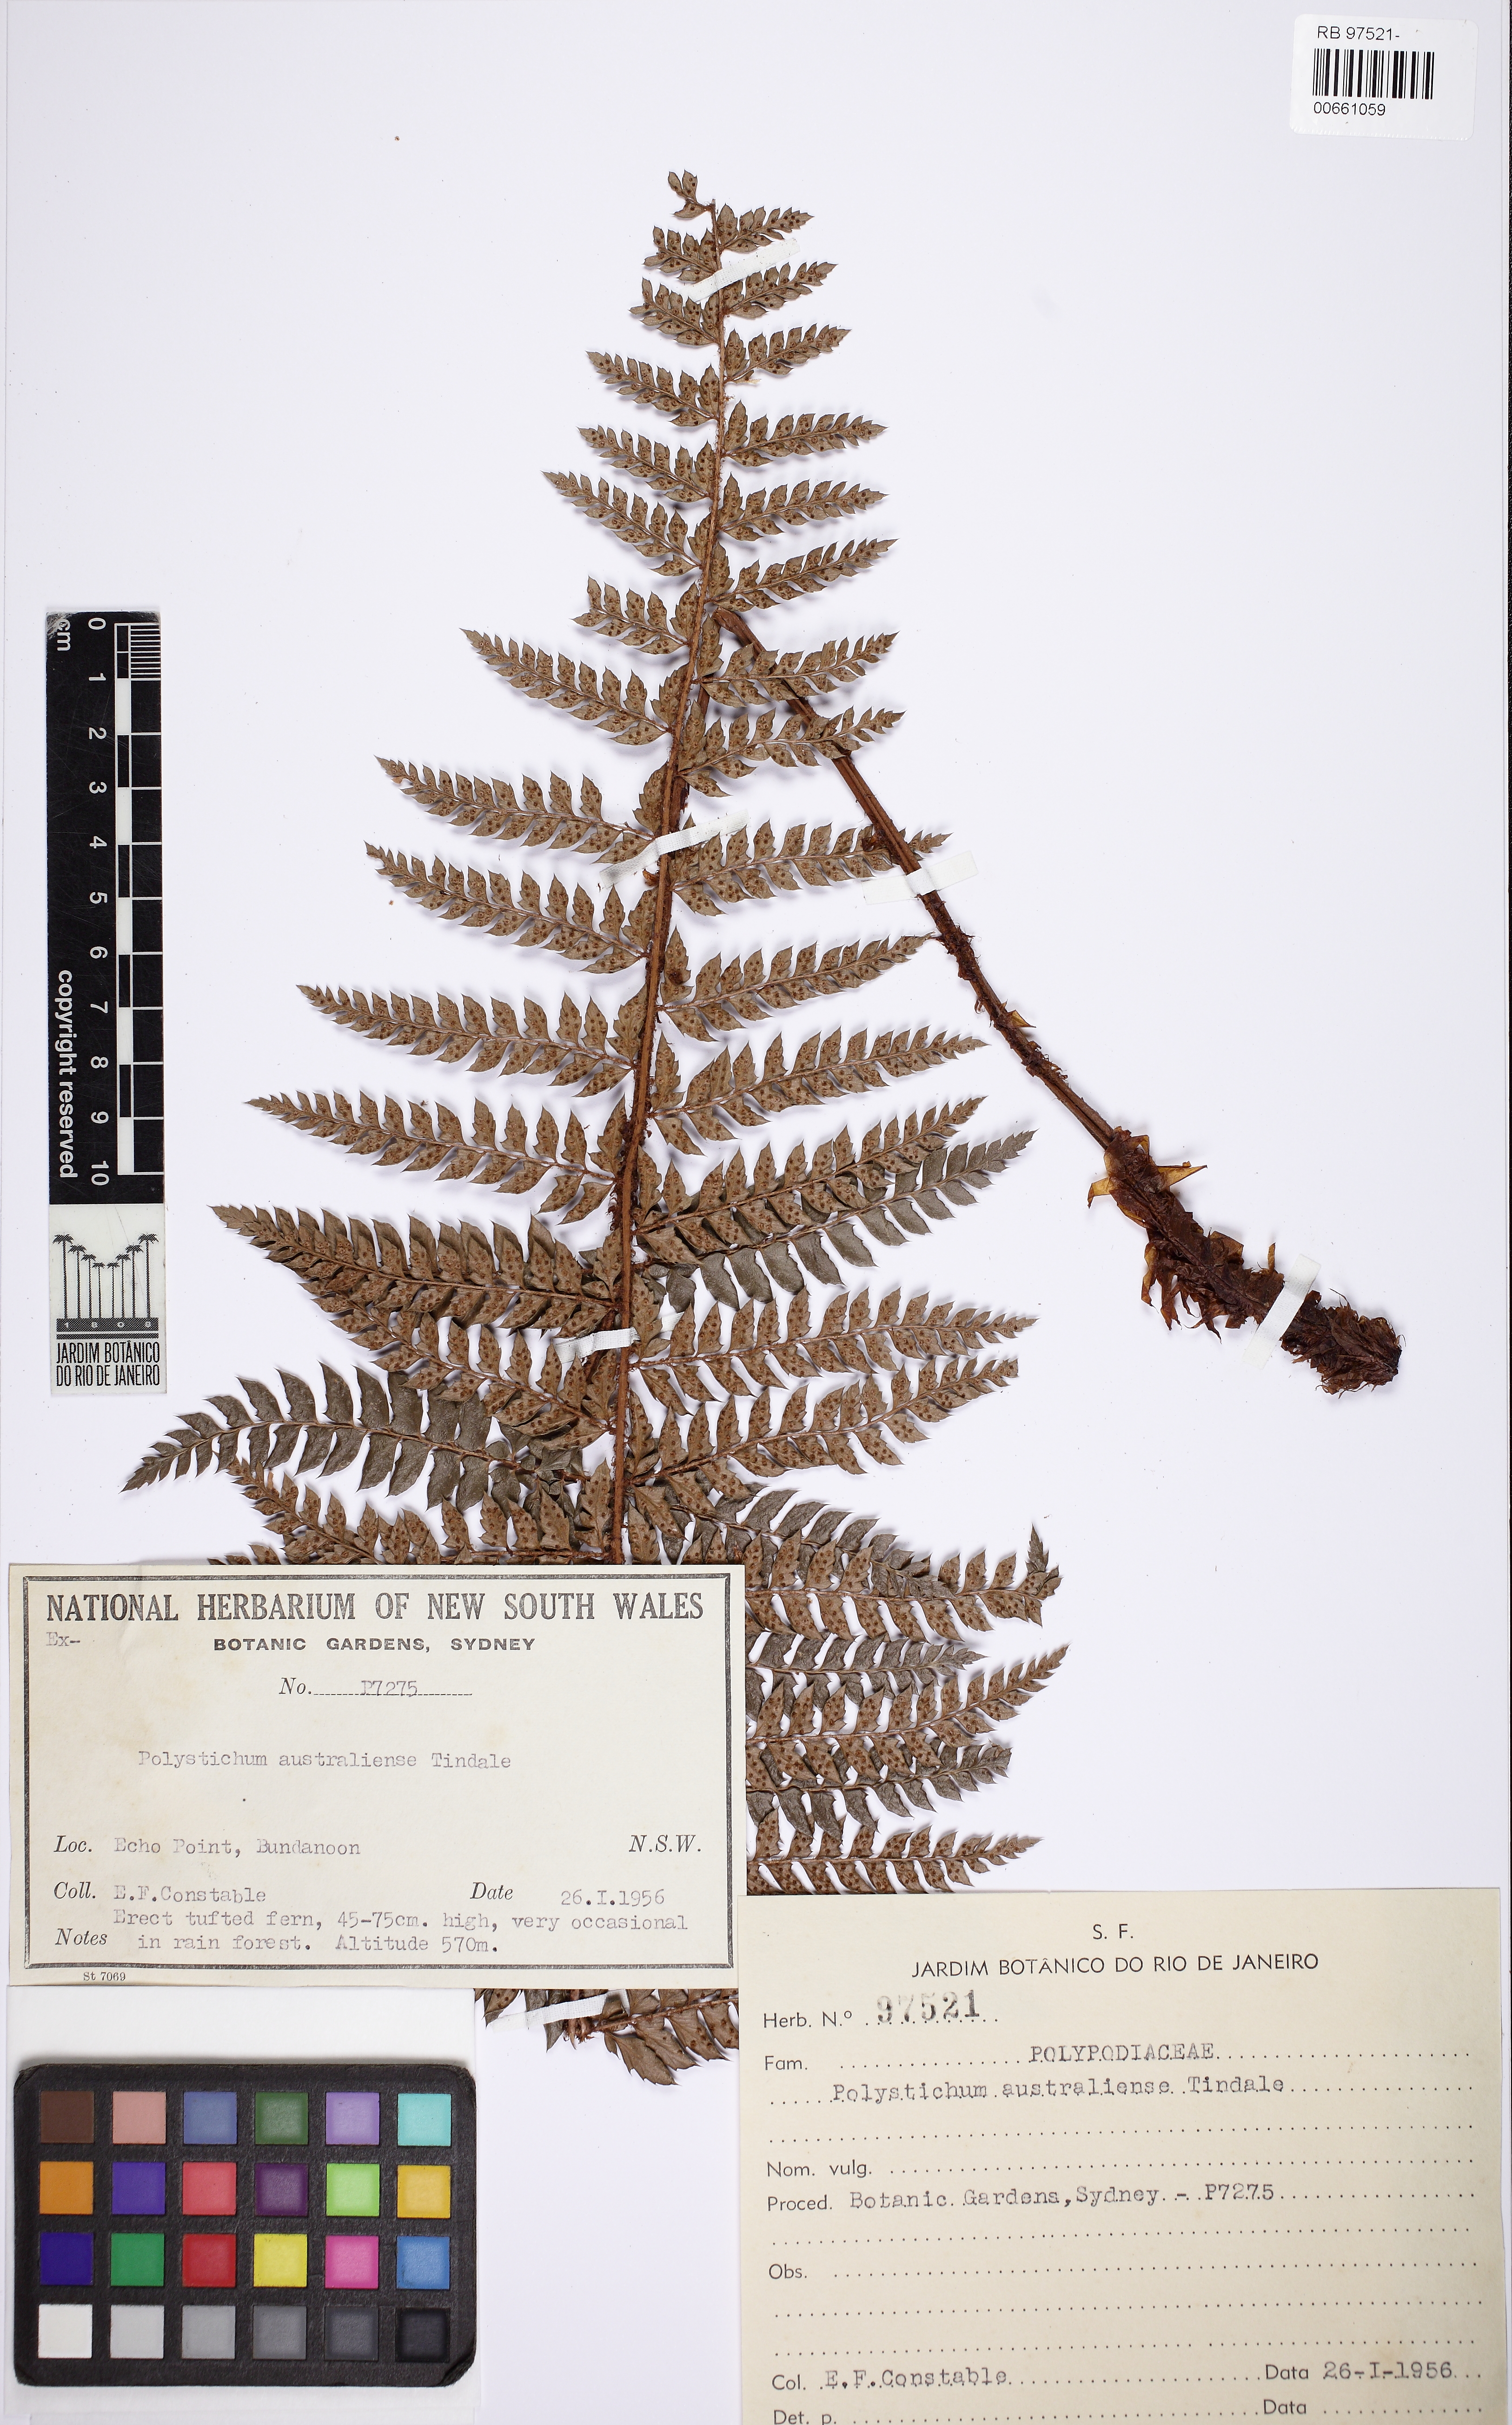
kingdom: Plantae
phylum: Tracheophyta
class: Polypodiopsida
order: Polypodiales
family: Dryopteridaceae
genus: Polystichum
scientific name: Polystichum australiense
